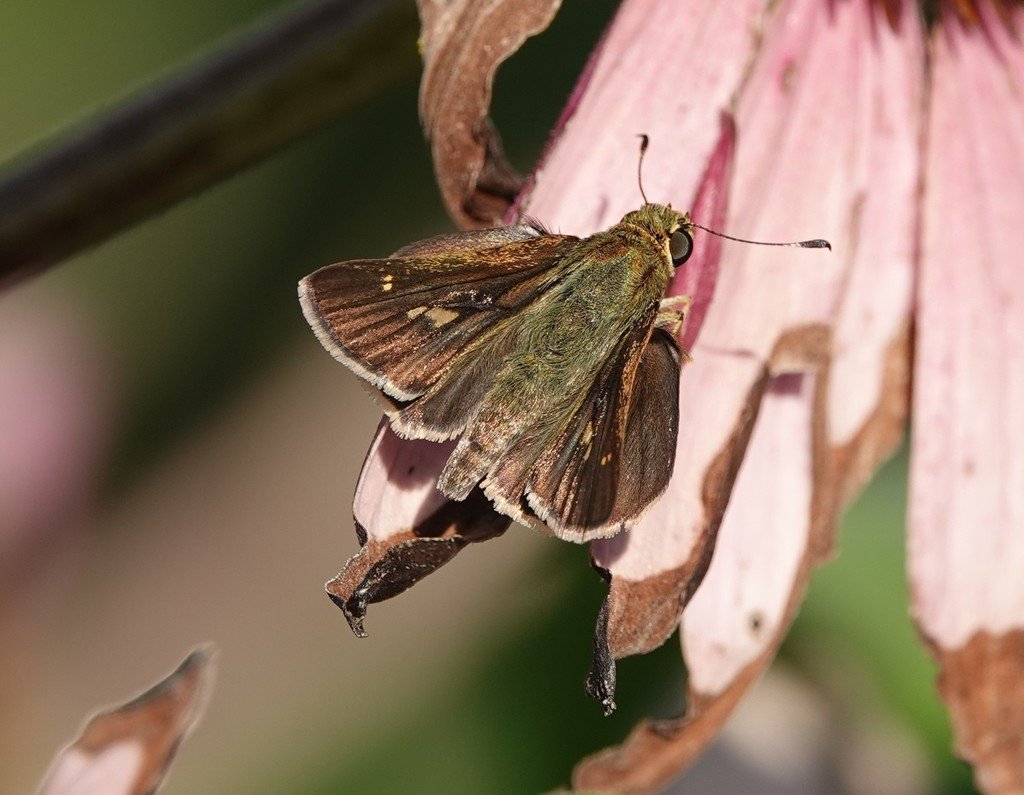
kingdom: Animalia
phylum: Arthropoda
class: Insecta
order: Lepidoptera
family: Hesperiidae
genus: Vernia
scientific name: Vernia verna
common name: Little Glassywing
